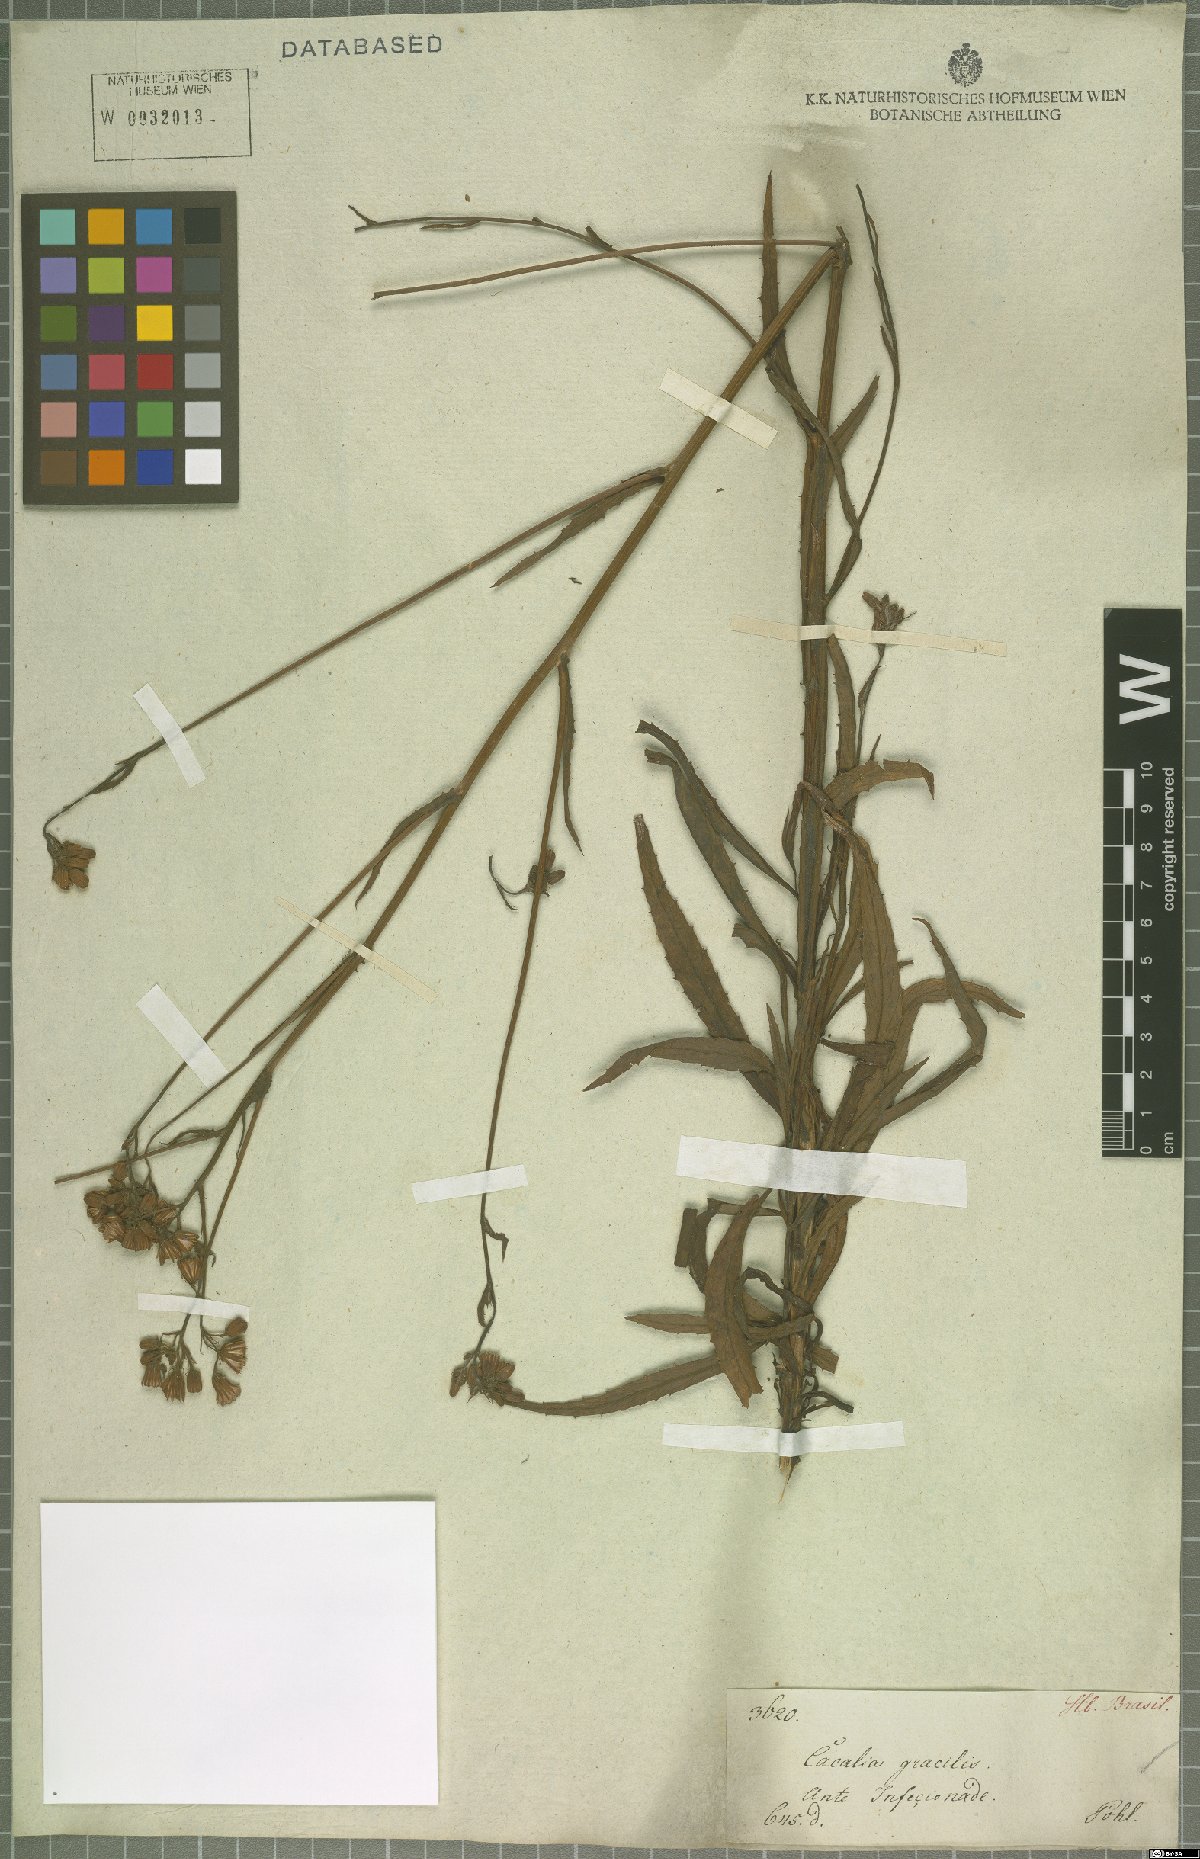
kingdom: Plantae
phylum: Tracheophyta
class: Magnoliopsida
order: Asterales
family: Asteraceae
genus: Pseudogynoxys
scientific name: Pseudogynoxys pohlii
